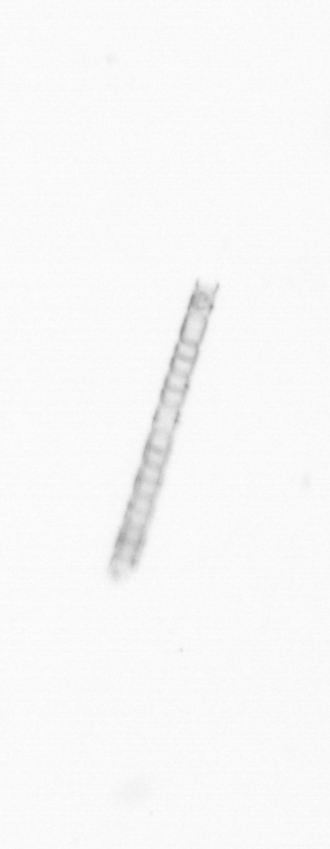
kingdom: Chromista
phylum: Ochrophyta
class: Bacillariophyceae
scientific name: Bacillariophyceae
